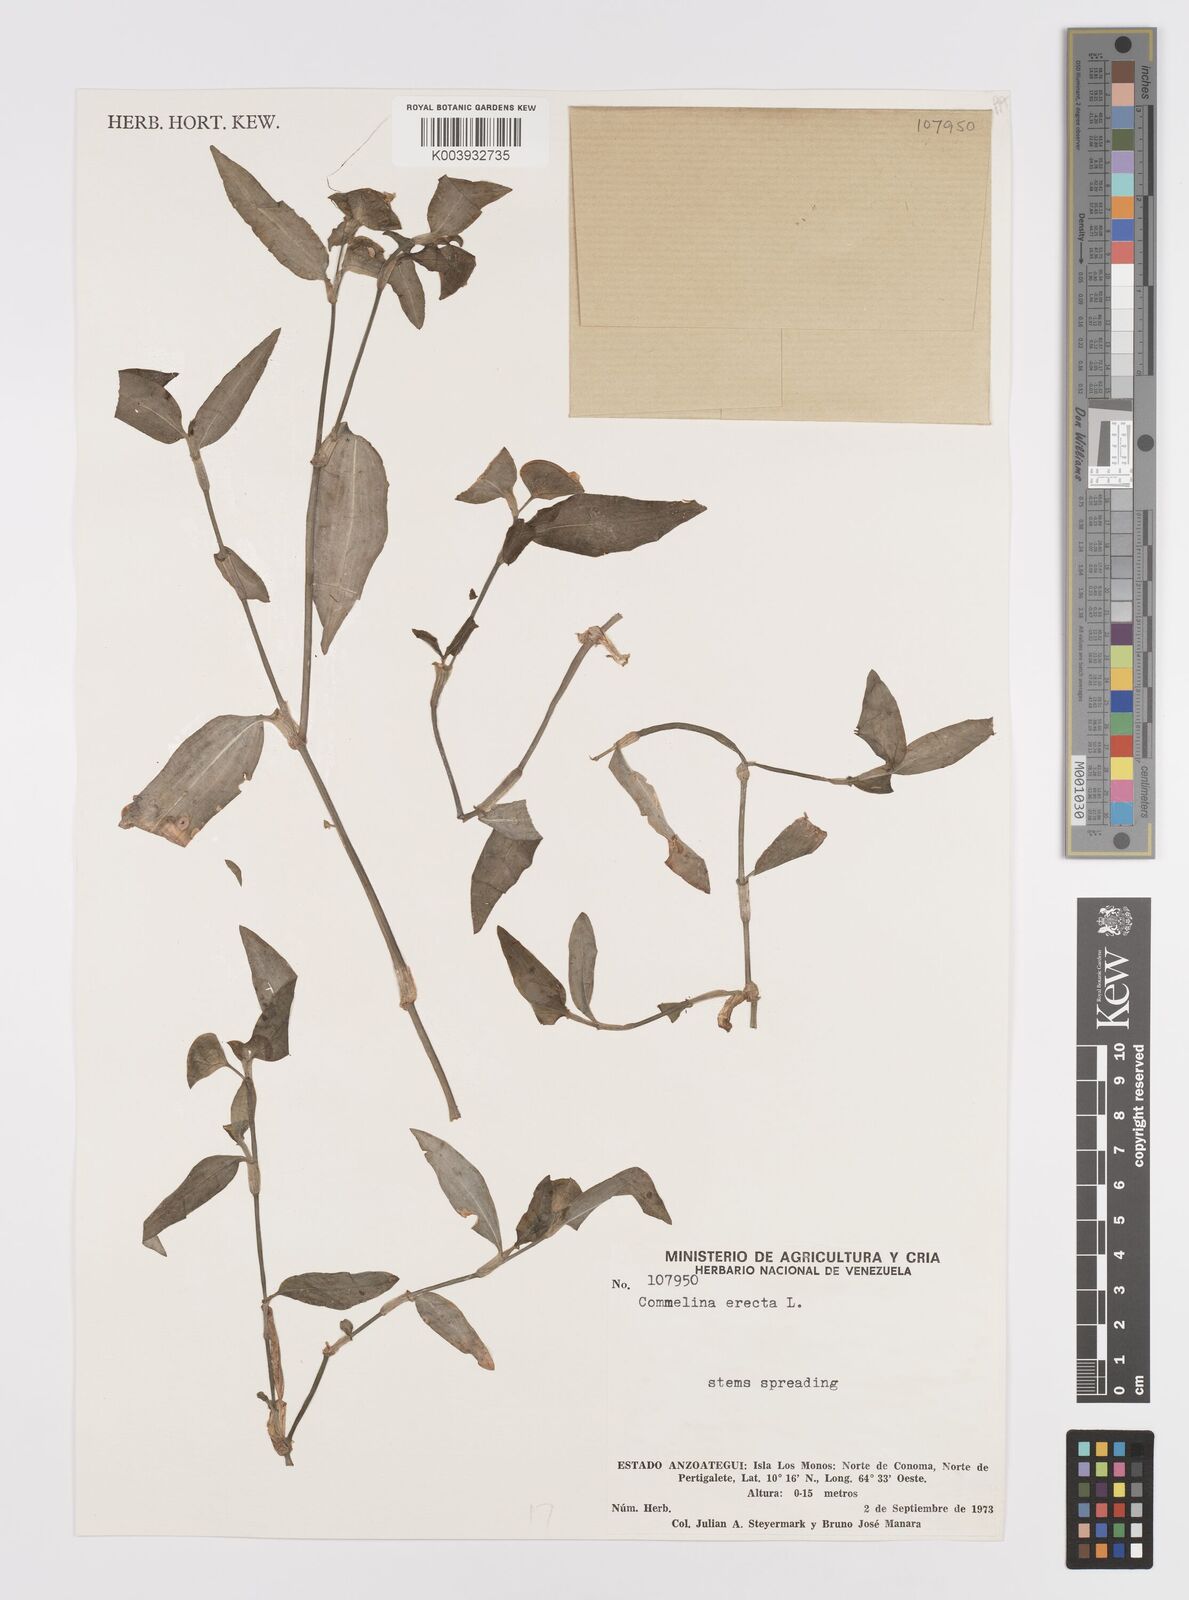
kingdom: Plantae
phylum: Tracheophyta
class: Liliopsida
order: Commelinales
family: Commelinaceae
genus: Commelina
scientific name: Commelina erecta
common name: Blousel blommetjie
